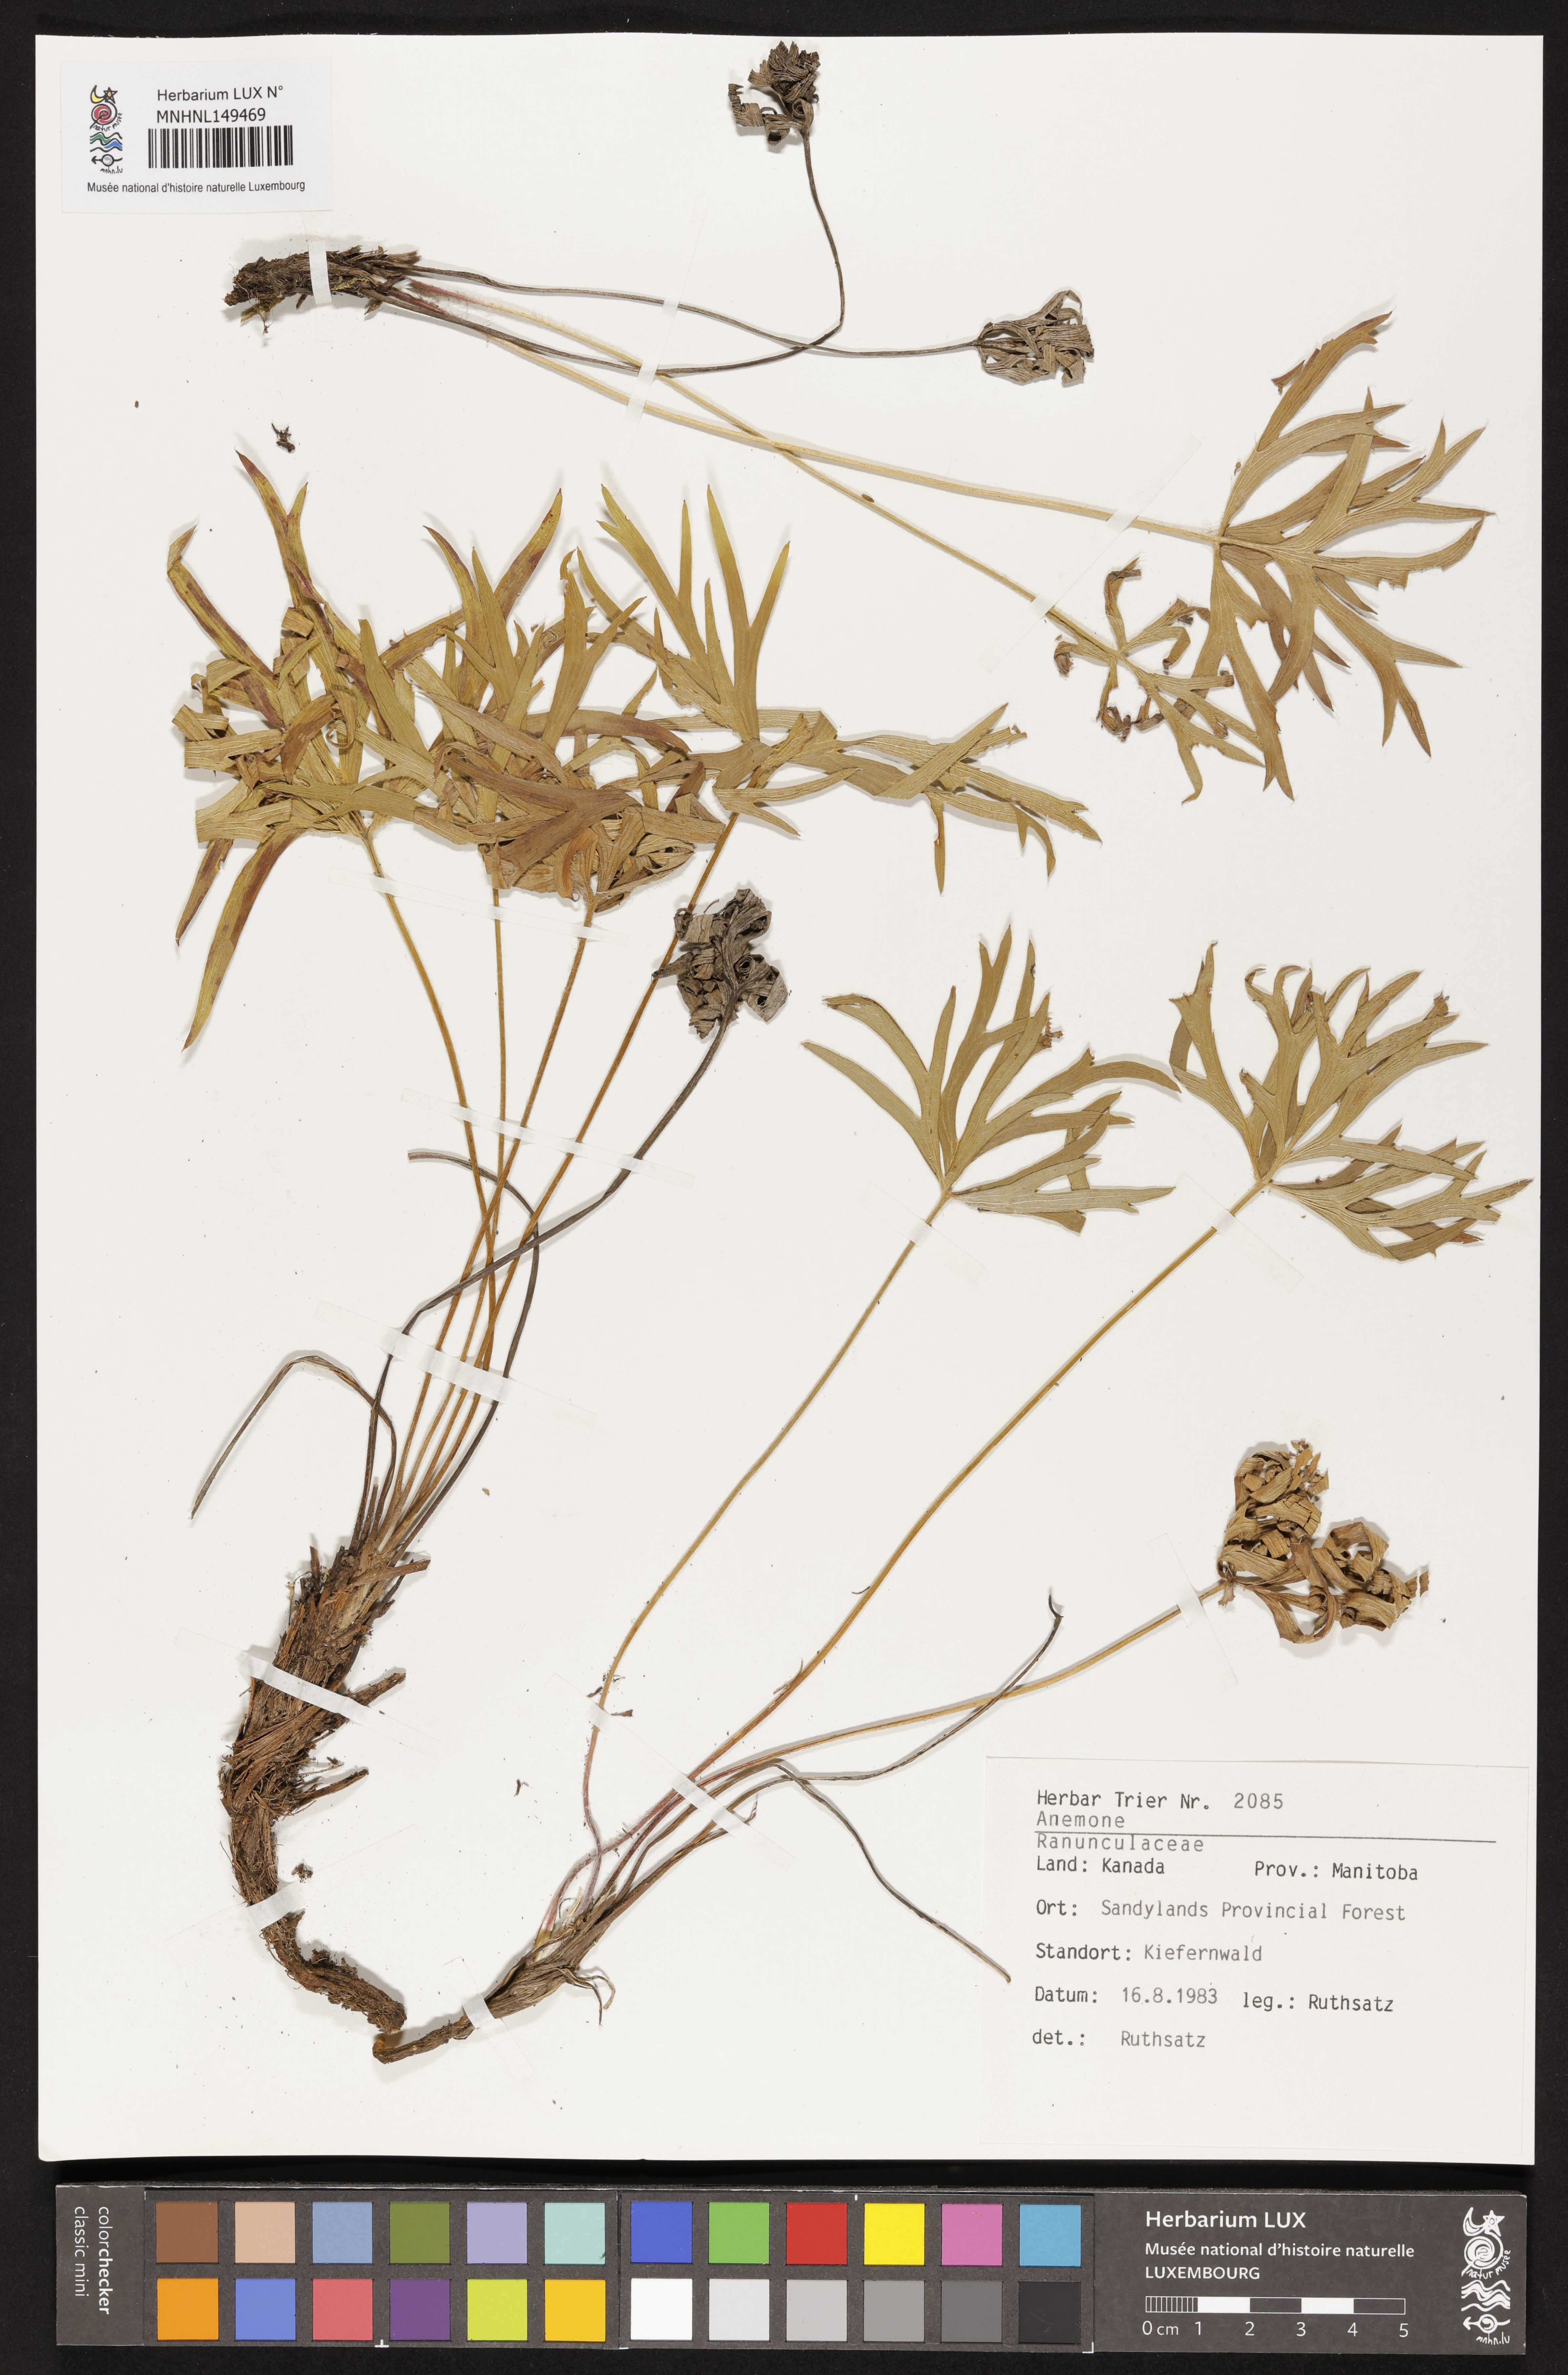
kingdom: Plantae
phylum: Tracheophyta
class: Magnoliopsida
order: Ranunculales
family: Ranunculaceae
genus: Anemone
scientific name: Anemone
